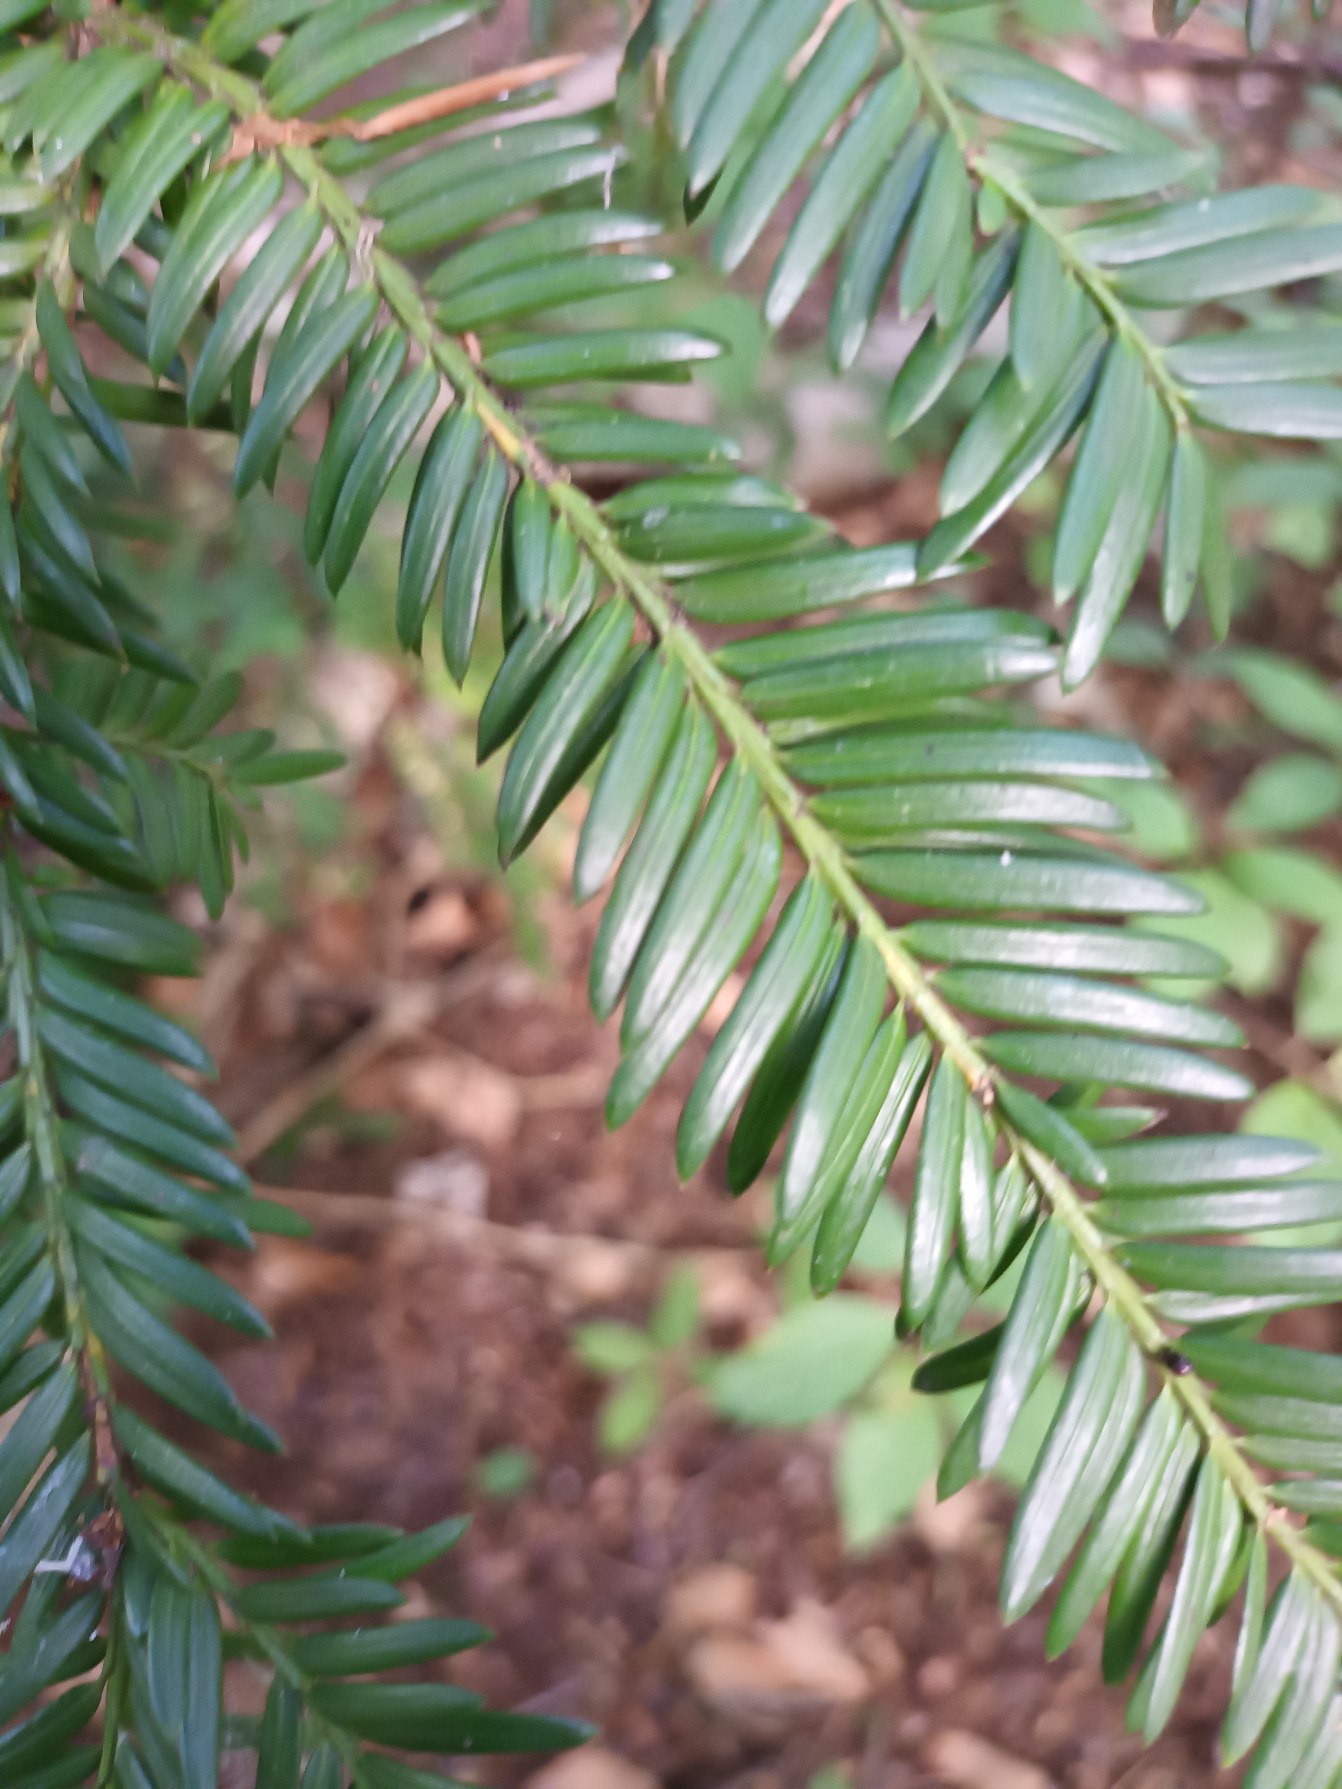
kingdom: Plantae
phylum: Tracheophyta
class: Pinopsida
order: Pinales
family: Taxaceae
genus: Taxus
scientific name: Taxus baccata
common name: Almindelig taks
